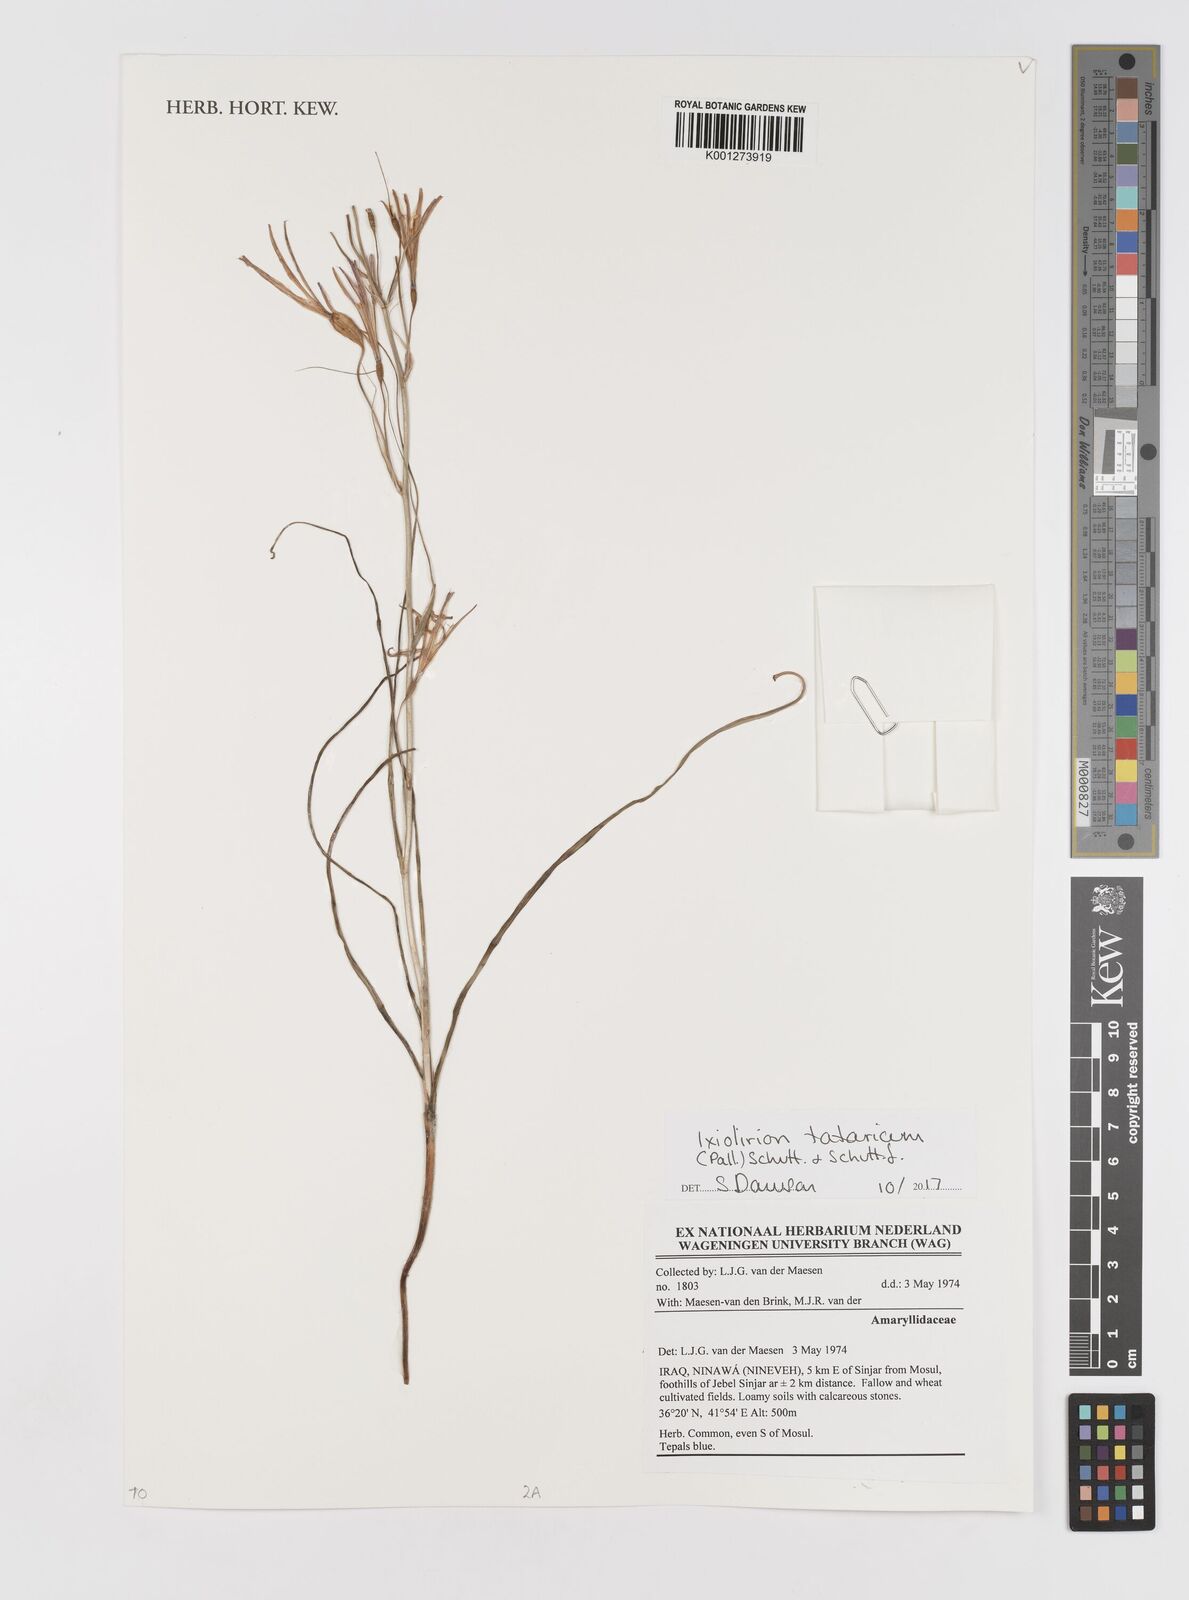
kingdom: Plantae
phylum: Tracheophyta
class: Liliopsida
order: Asparagales
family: Ixioliriaceae
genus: Ixiolirion
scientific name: Ixiolirion tataricum
